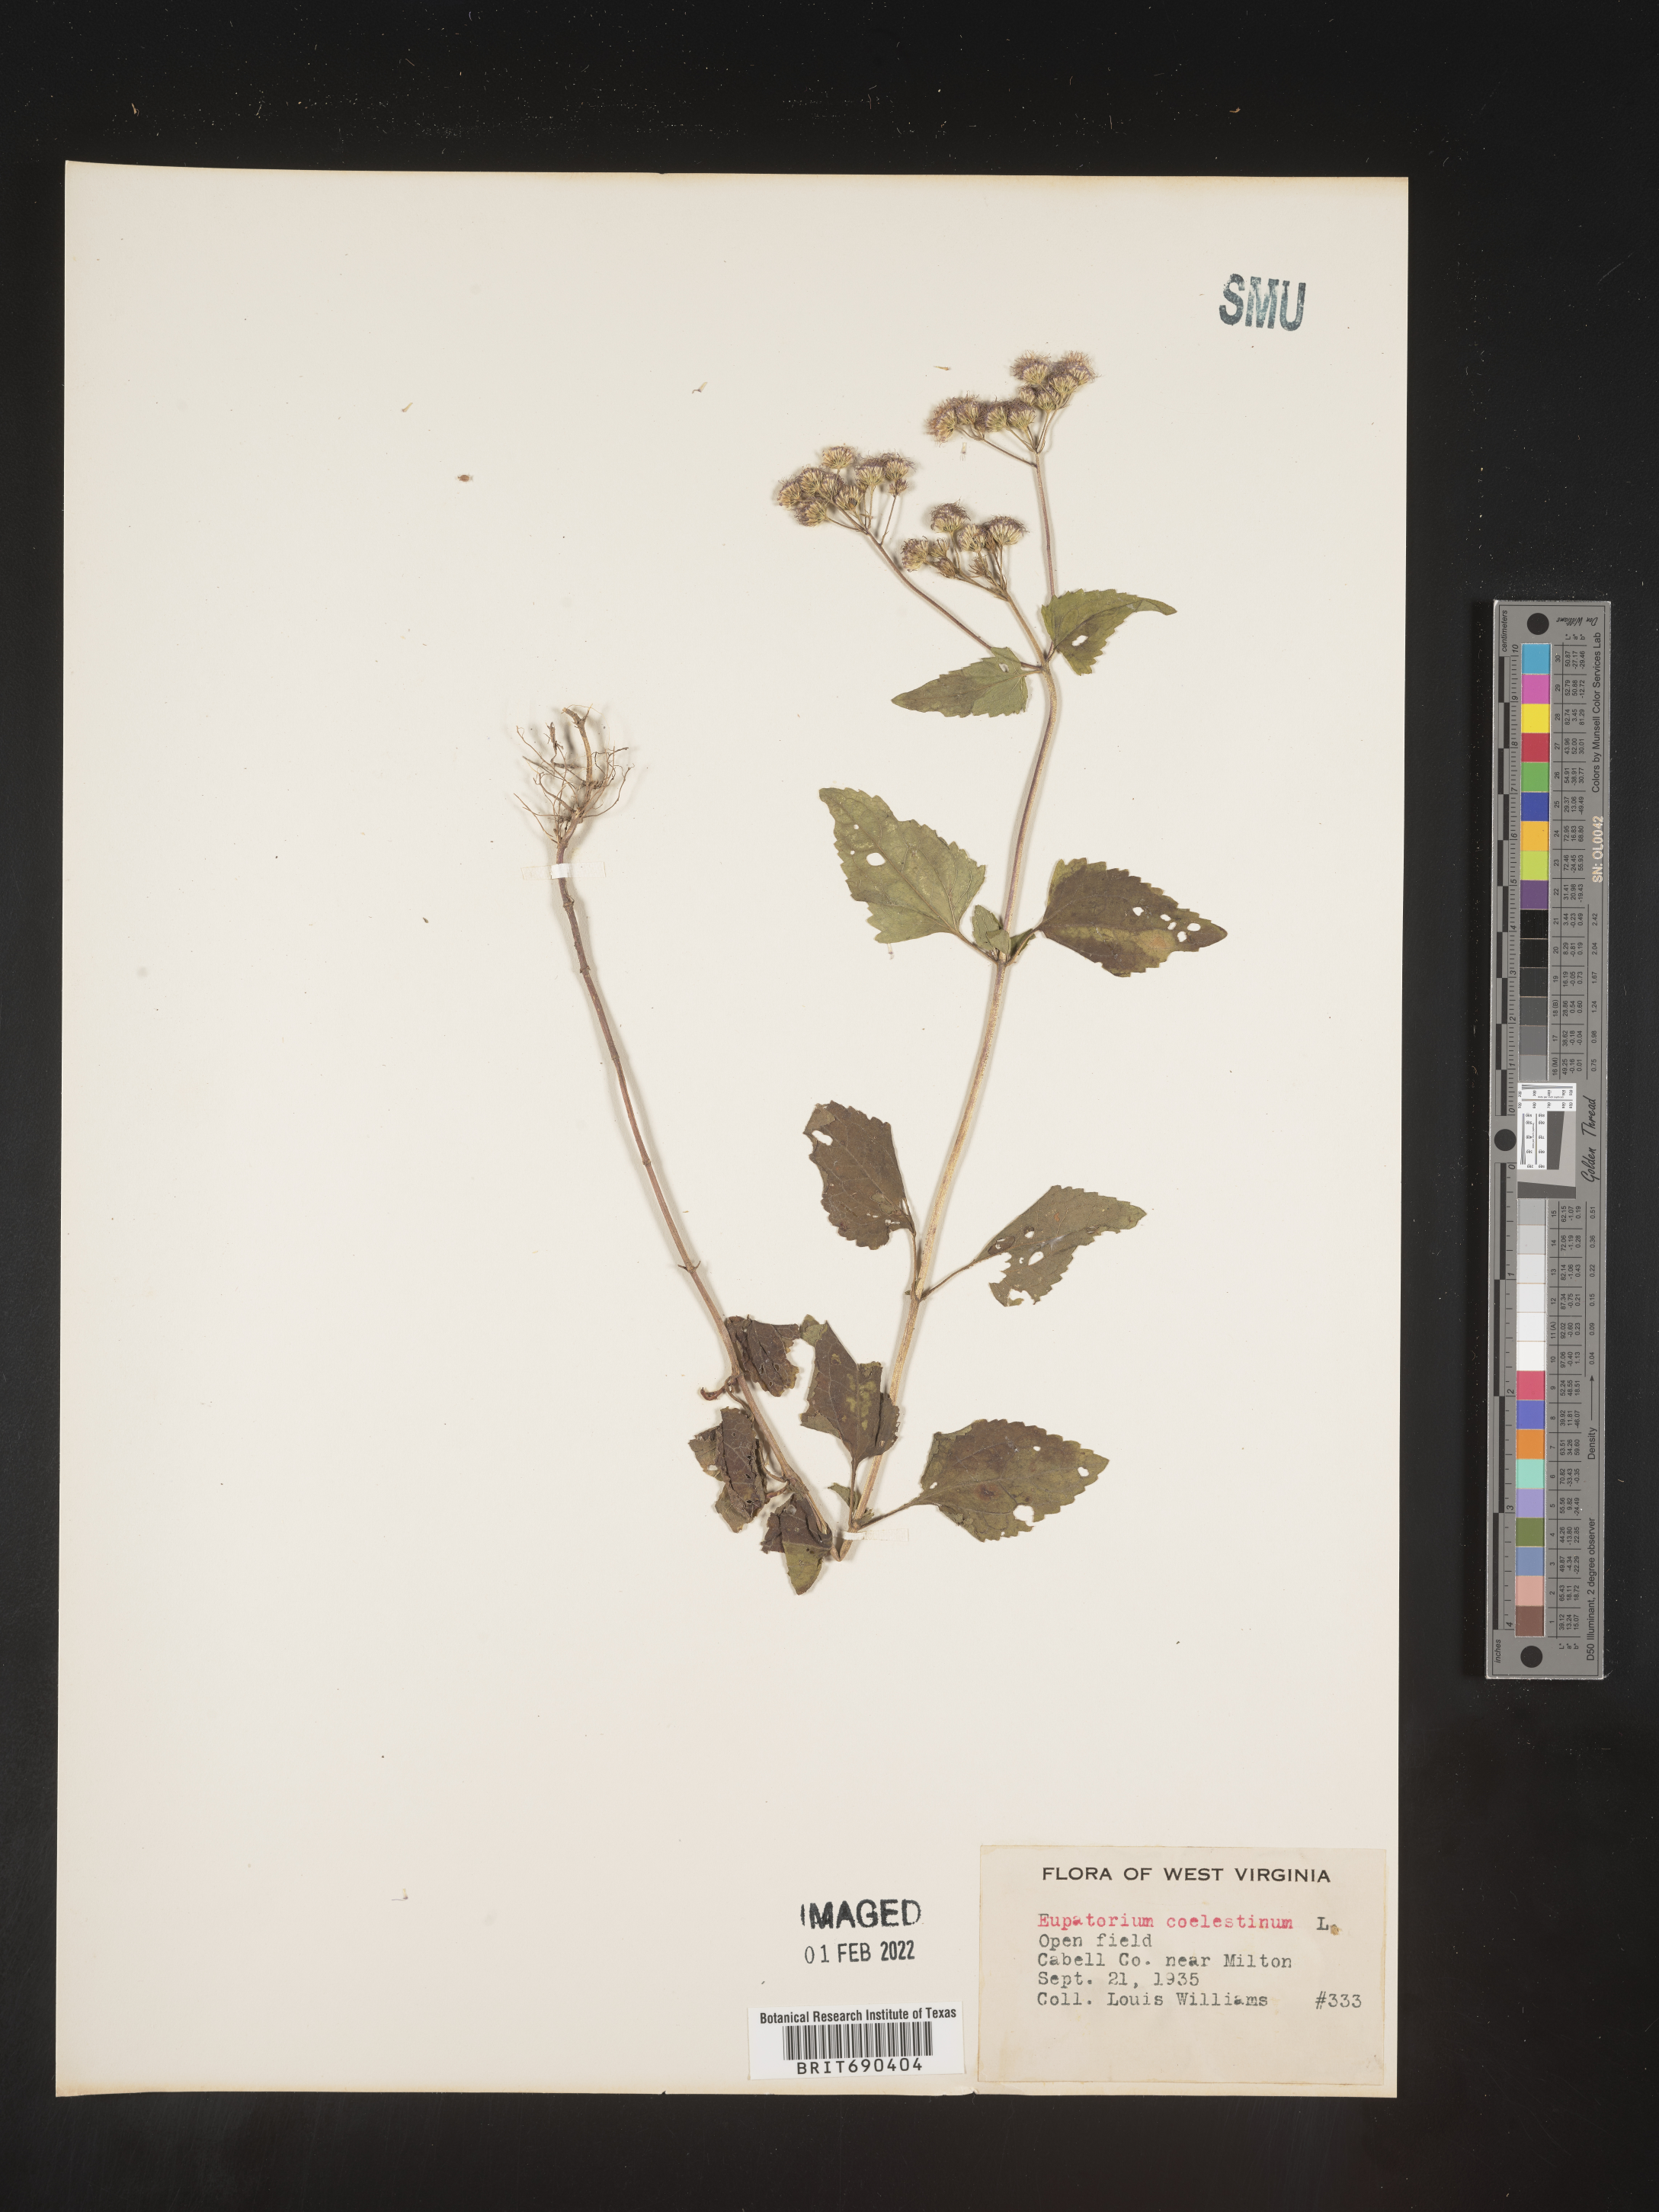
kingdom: Plantae
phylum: Tracheophyta
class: Magnoliopsida
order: Asterales
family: Asteraceae
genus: Conoclinium
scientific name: Conoclinium coelestinum
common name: Blue mistflower
